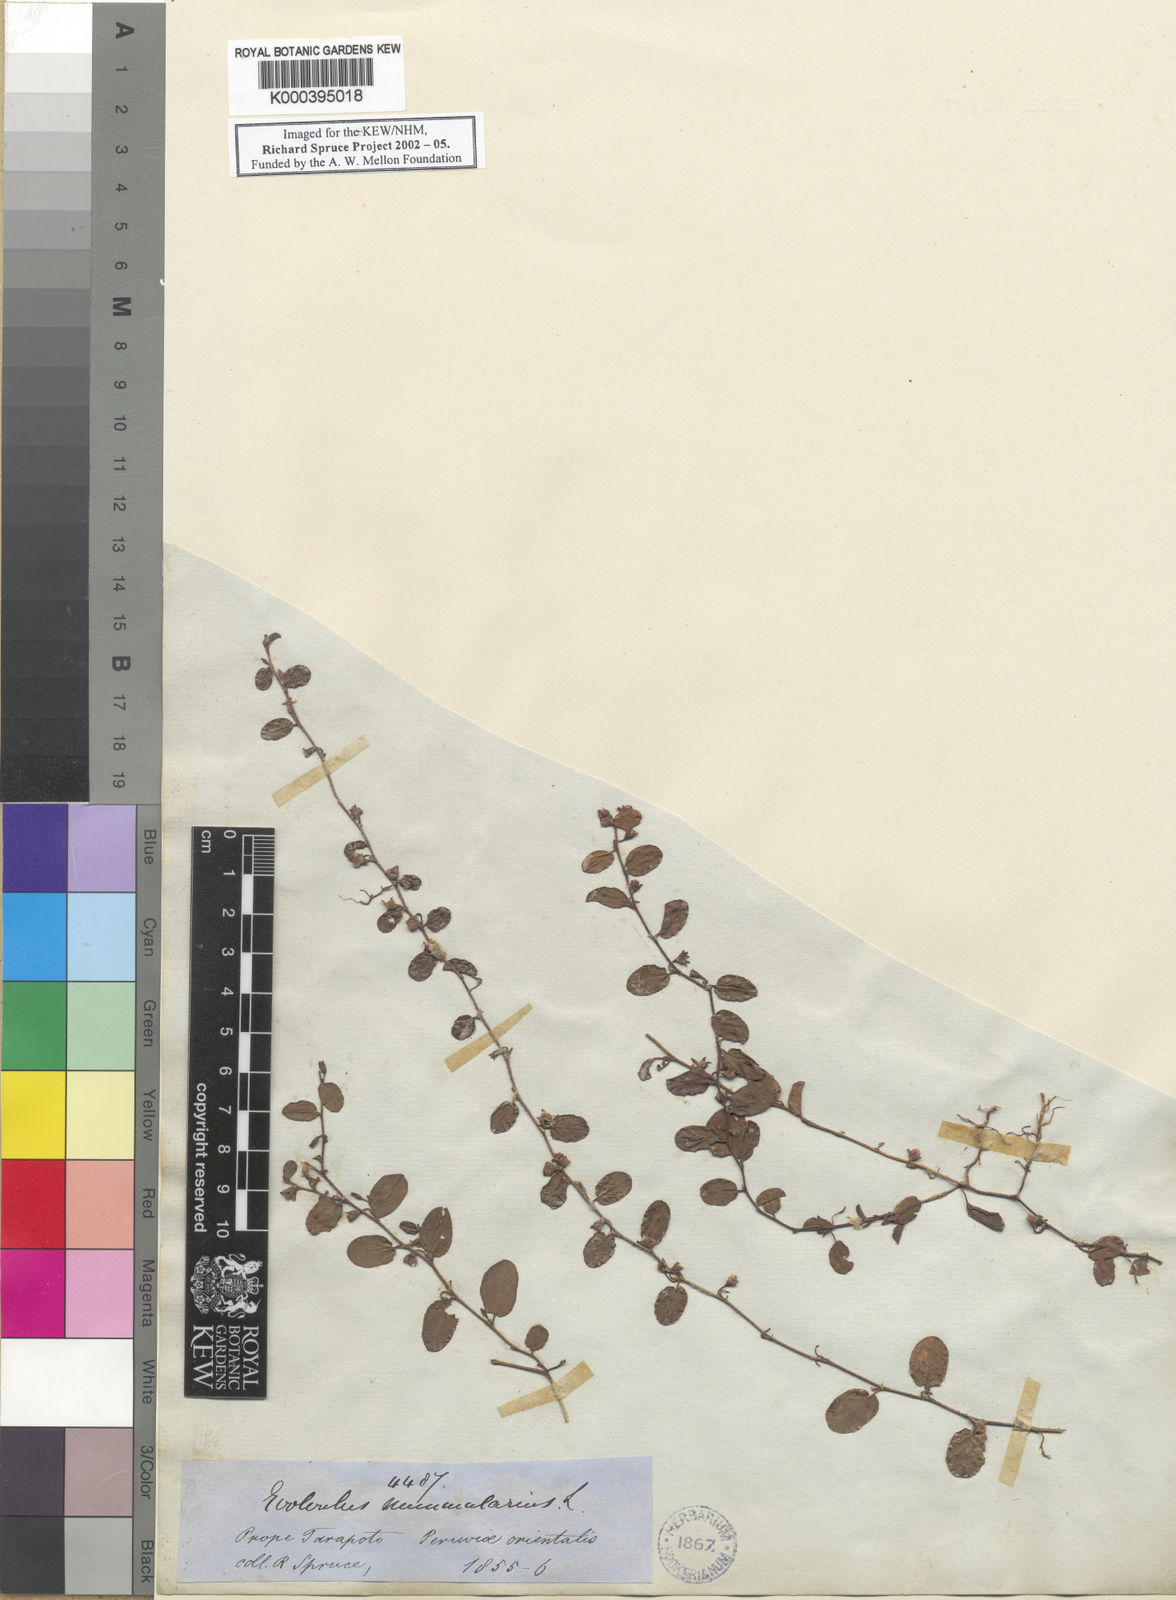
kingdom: Plantae
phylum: Tracheophyta
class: Magnoliopsida
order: Solanales
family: Convolvulaceae
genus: Evolvulus
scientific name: Evolvulus nummularius
